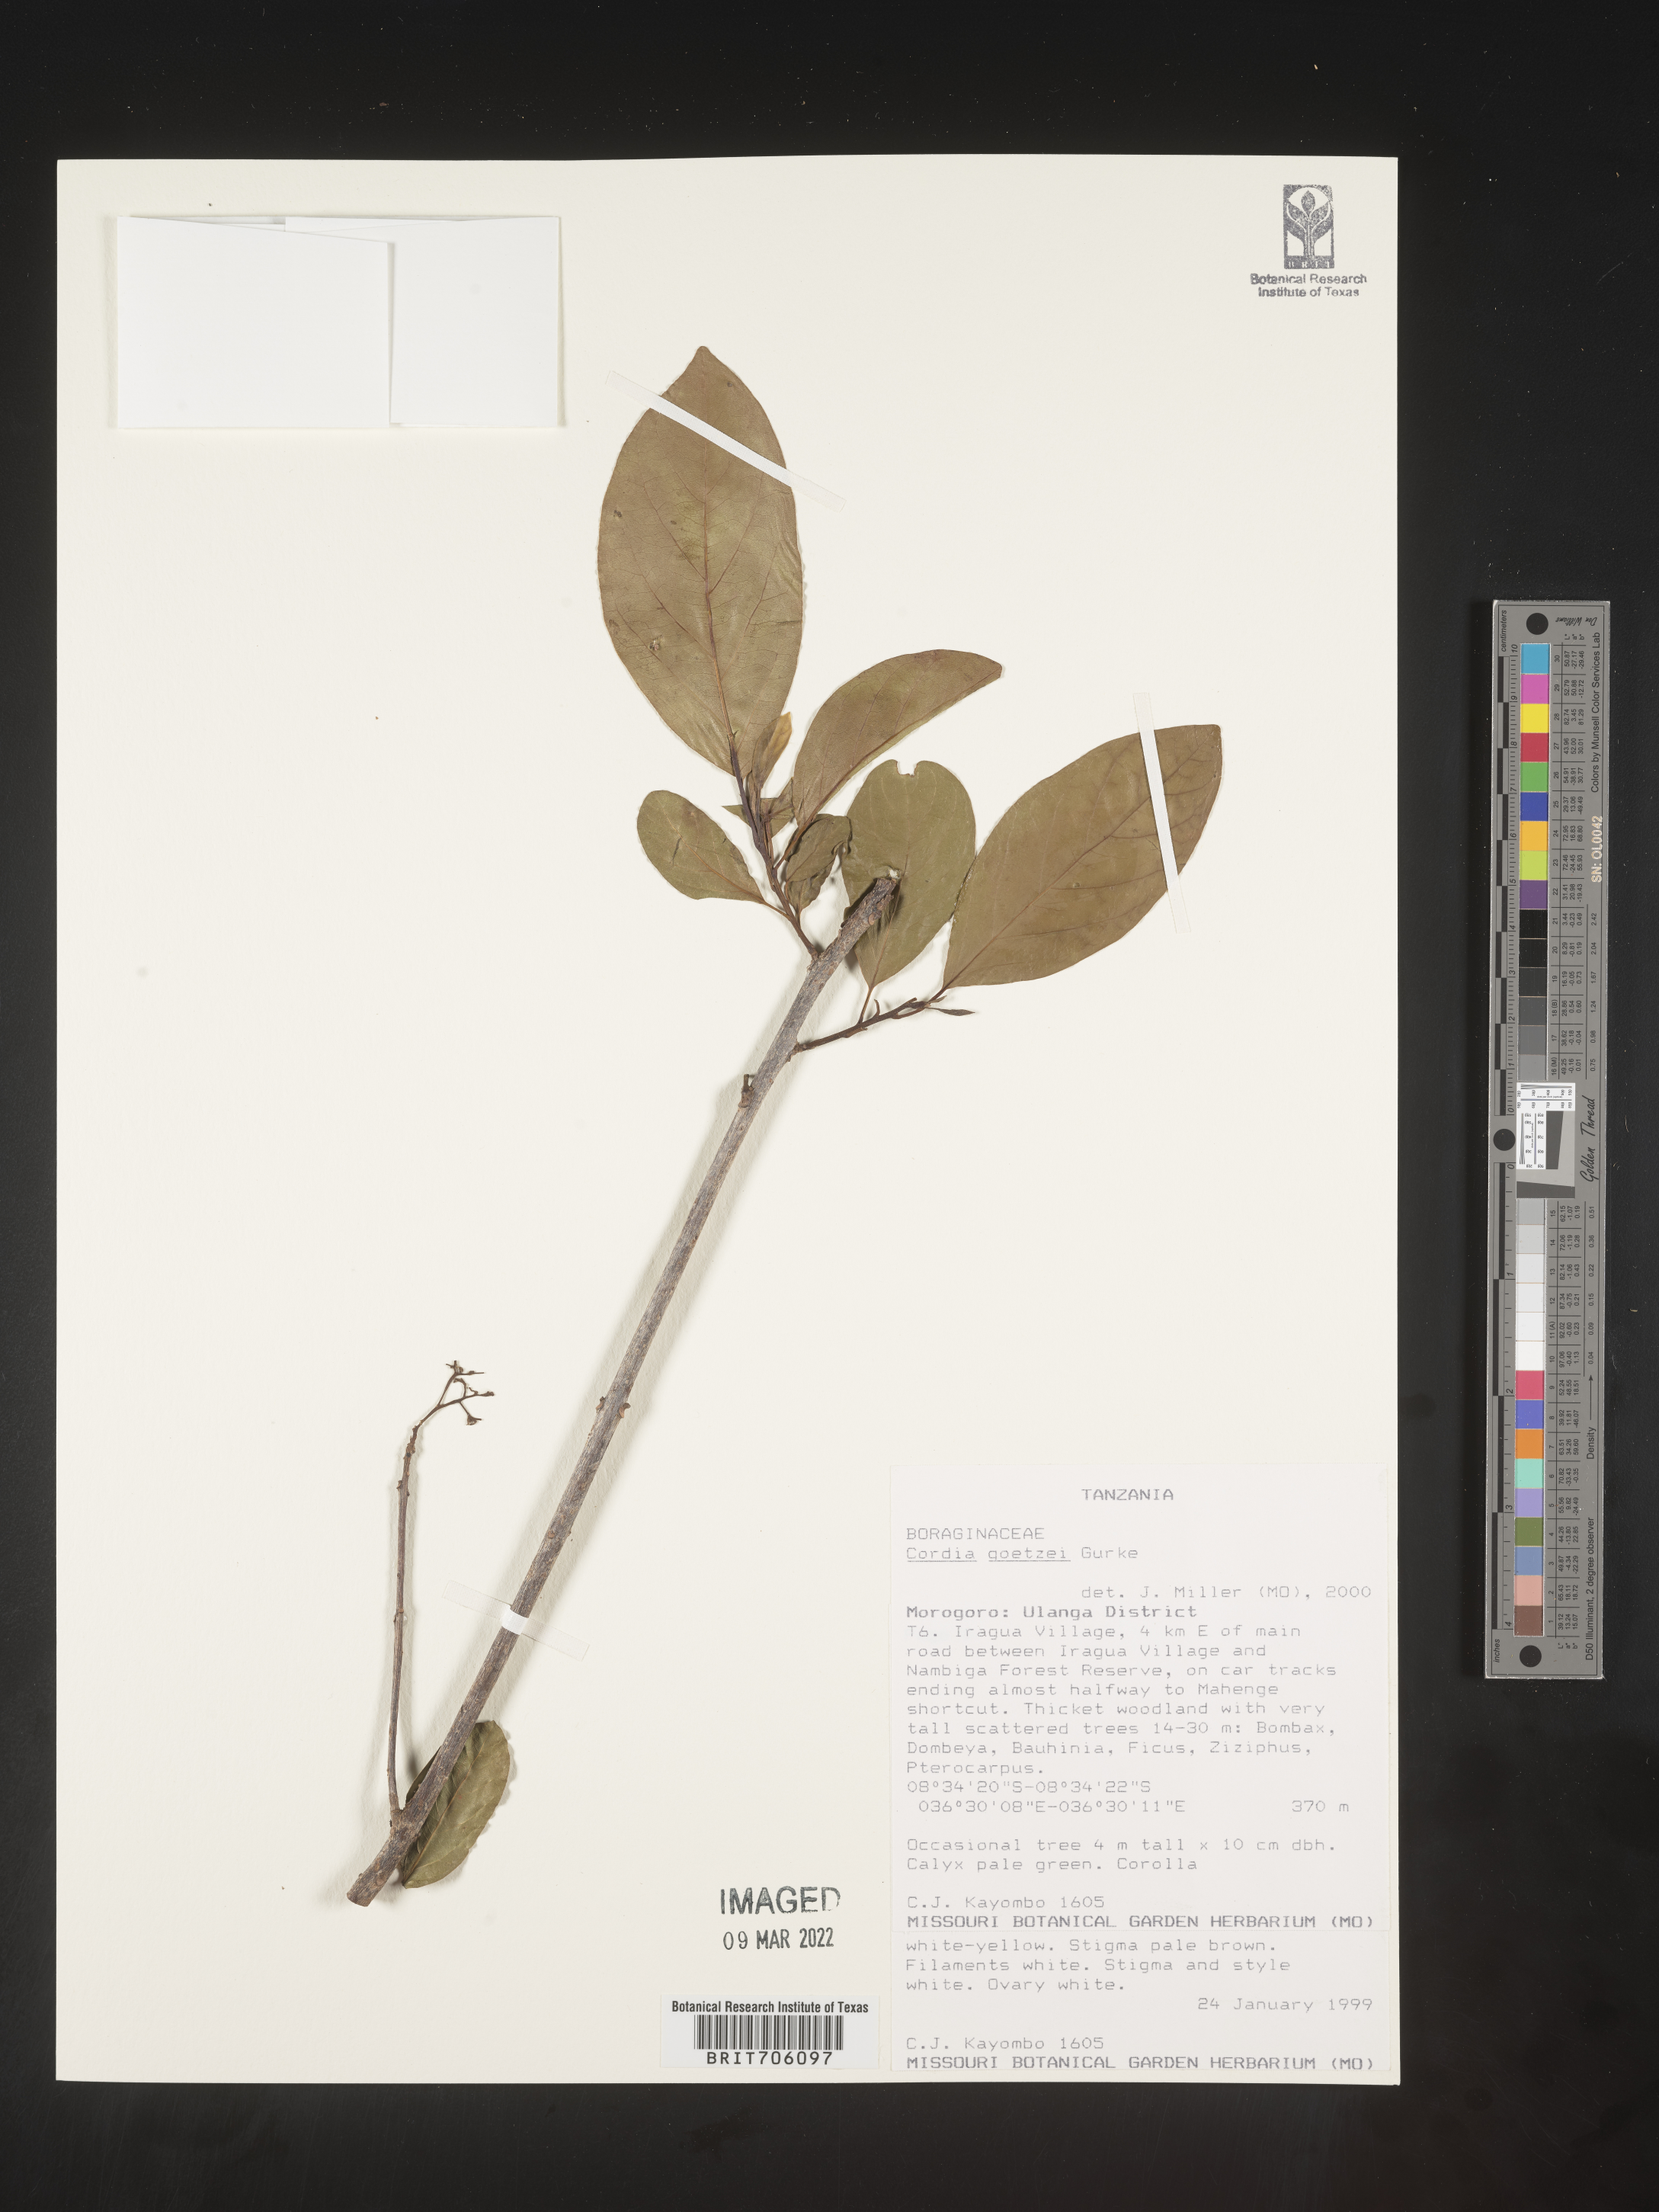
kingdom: Plantae
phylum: Tracheophyta
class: Magnoliopsida
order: Boraginales
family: Cordiaceae
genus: Cordia
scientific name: Cordia
